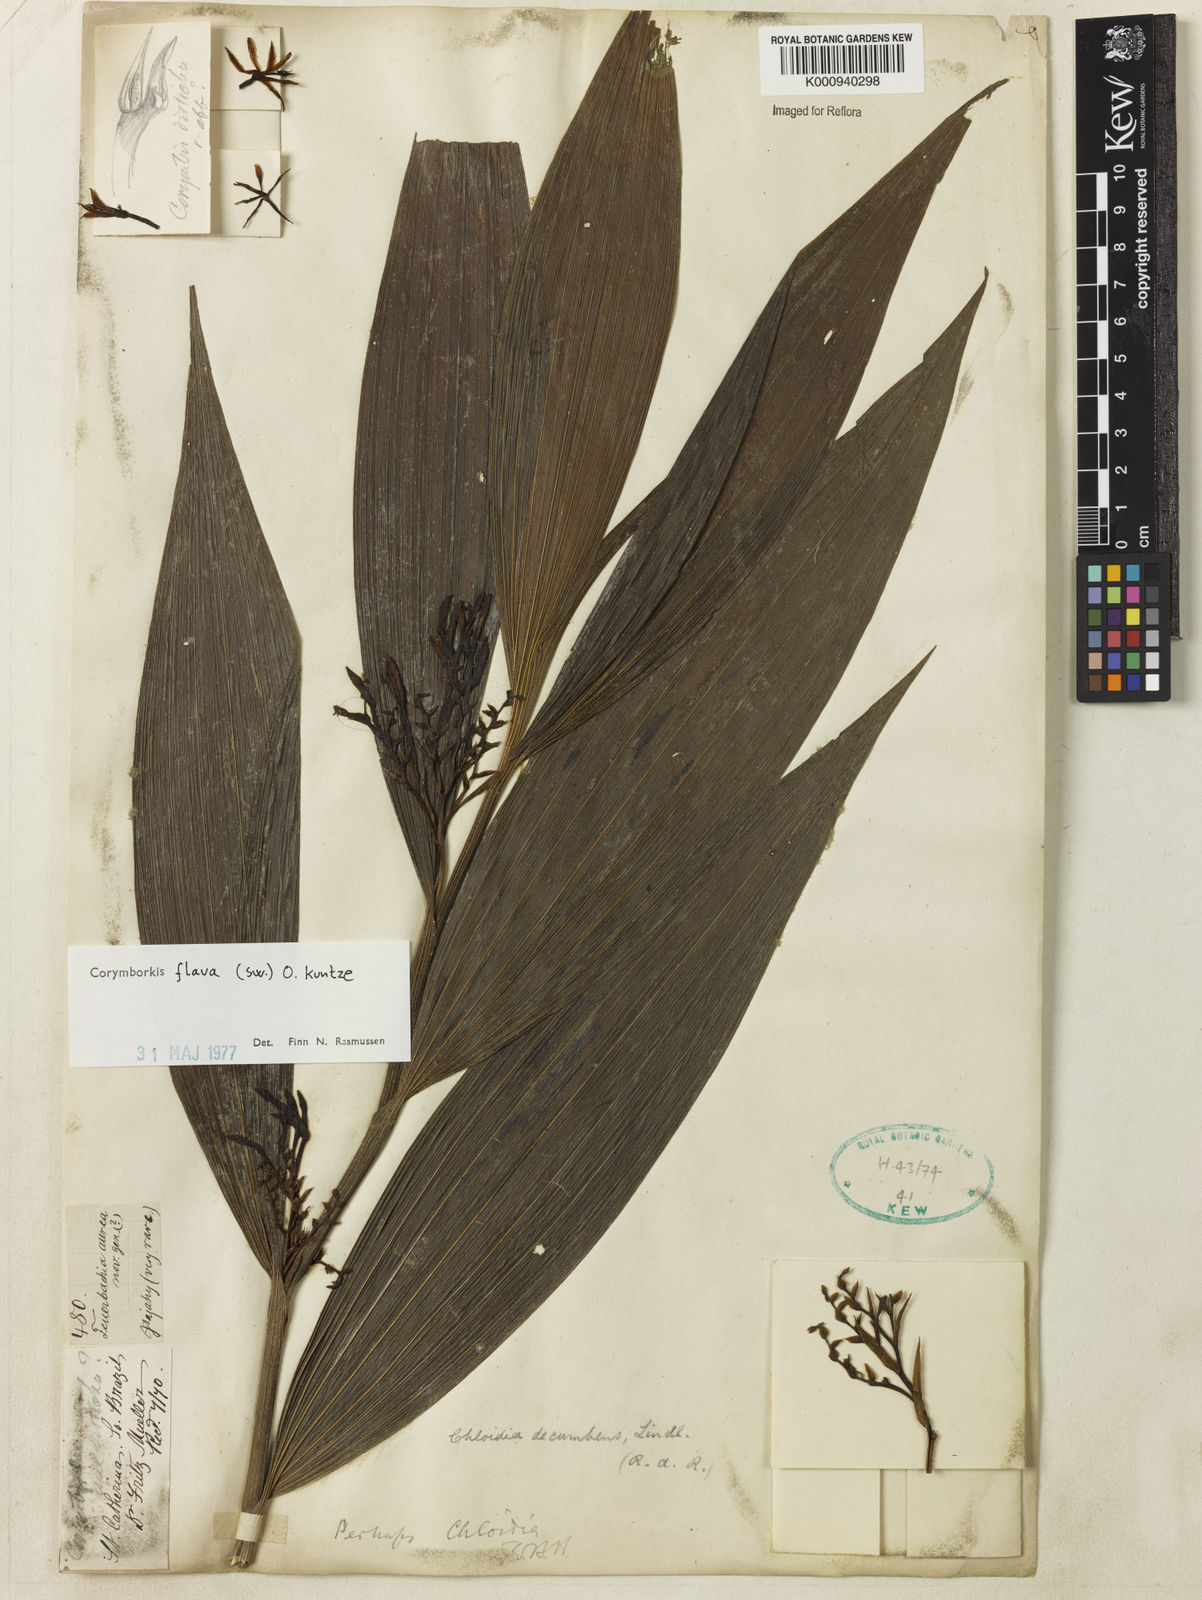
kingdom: Plantae
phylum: Tracheophyta
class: Liliopsida
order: Asparagales
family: Orchidaceae
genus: Corymborkis
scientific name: Corymborkis flava
